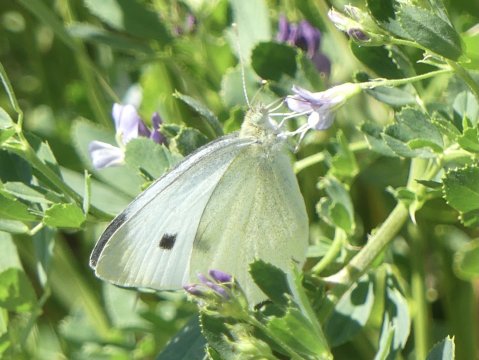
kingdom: Animalia
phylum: Arthropoda
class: Insecta
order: Lepidoptera
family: Pieridae
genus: Pieris
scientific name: Pieris rapae
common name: Cabbage White
